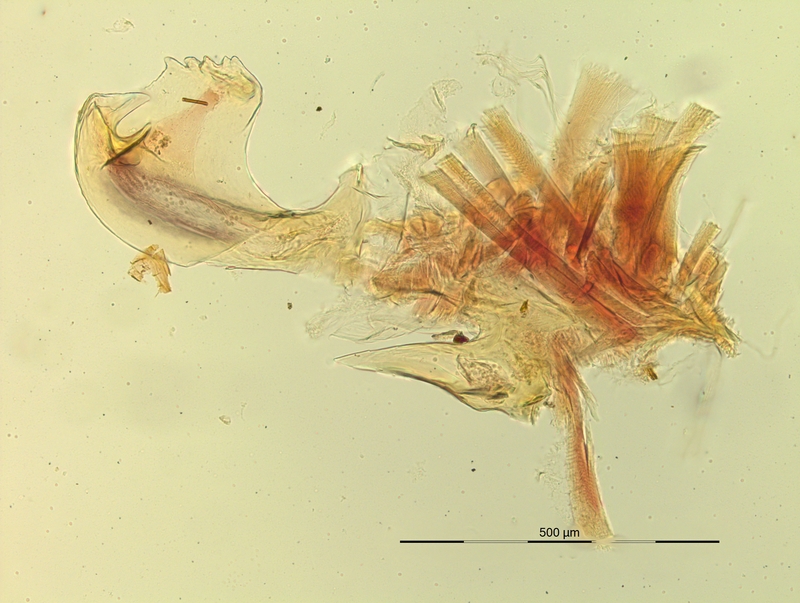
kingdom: Animalia
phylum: Arthropoda
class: Diplopoda
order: Chordeumatida
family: Craspedosomatidae
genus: Pyrgocyphosoma
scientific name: Pyrgocyphosoma dentatum
